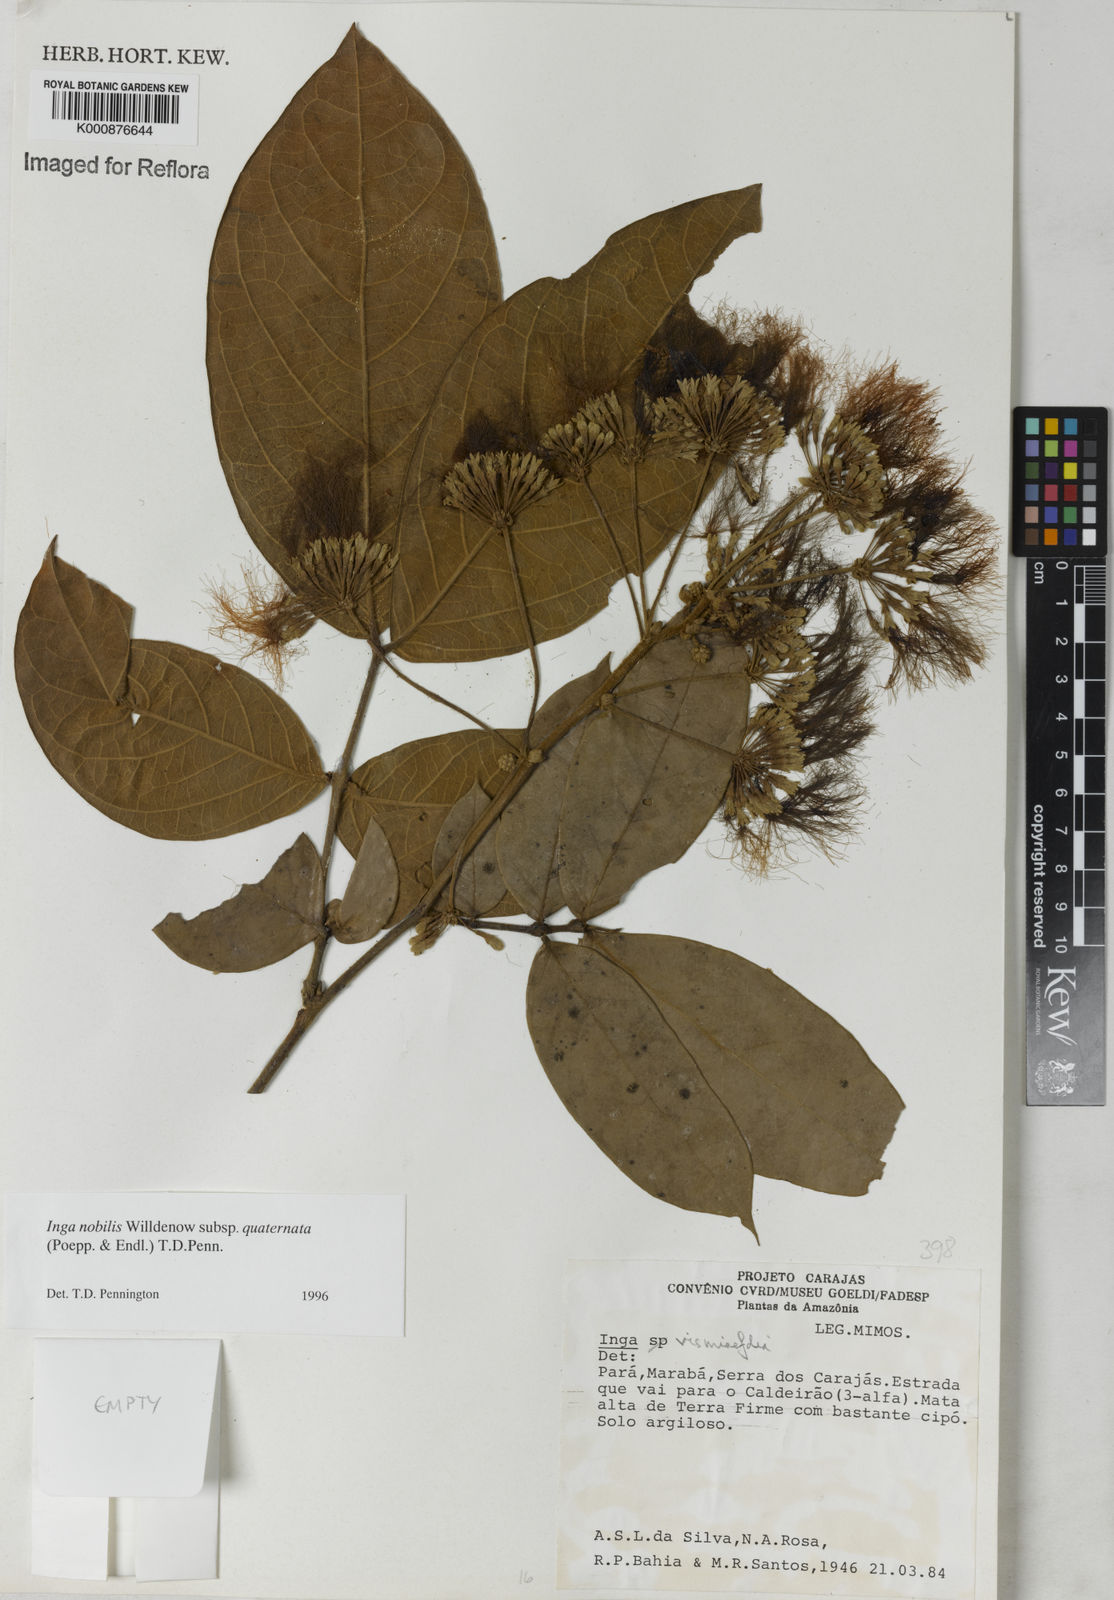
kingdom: Plantae
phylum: Tracheophyta
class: Magnoliopsida
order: Fabales
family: Fabaceae
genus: Inga
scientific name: Inga nobilis
